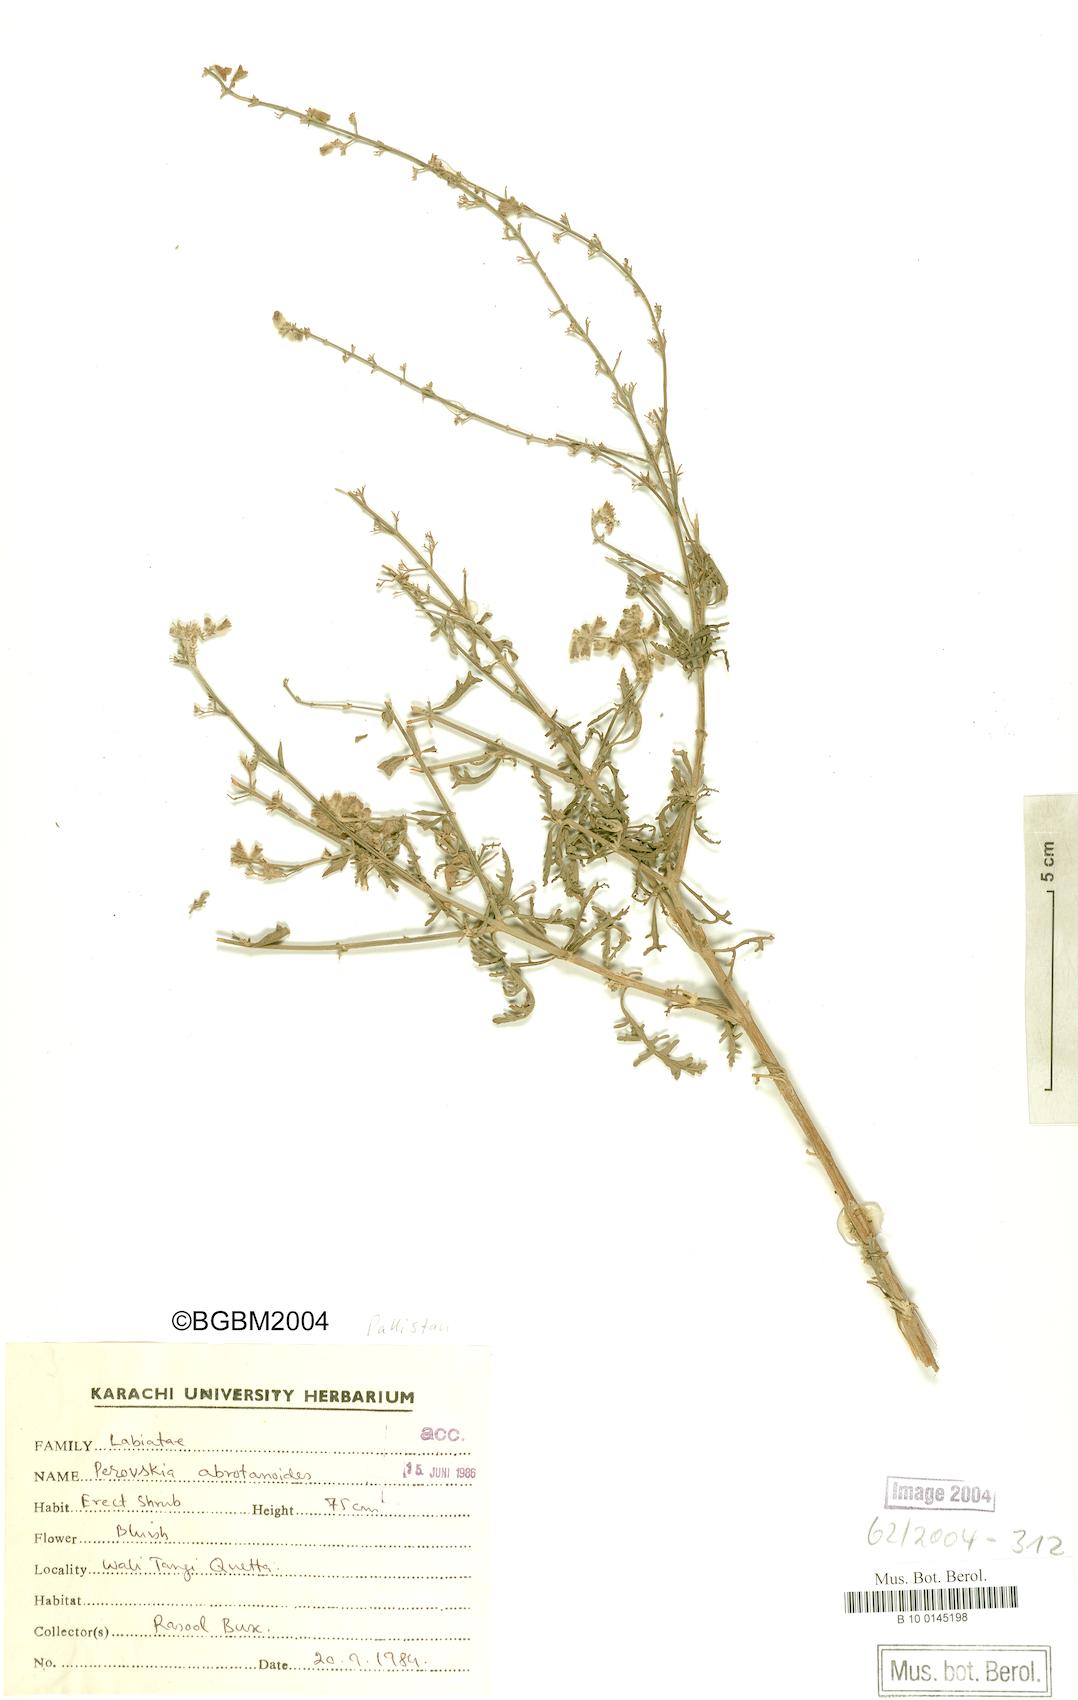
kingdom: Plantae
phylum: Tracheophyta
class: Magnoliopsida
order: Lamiales
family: Lamiaceae
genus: Salvia
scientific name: Salvia abrotanoides
